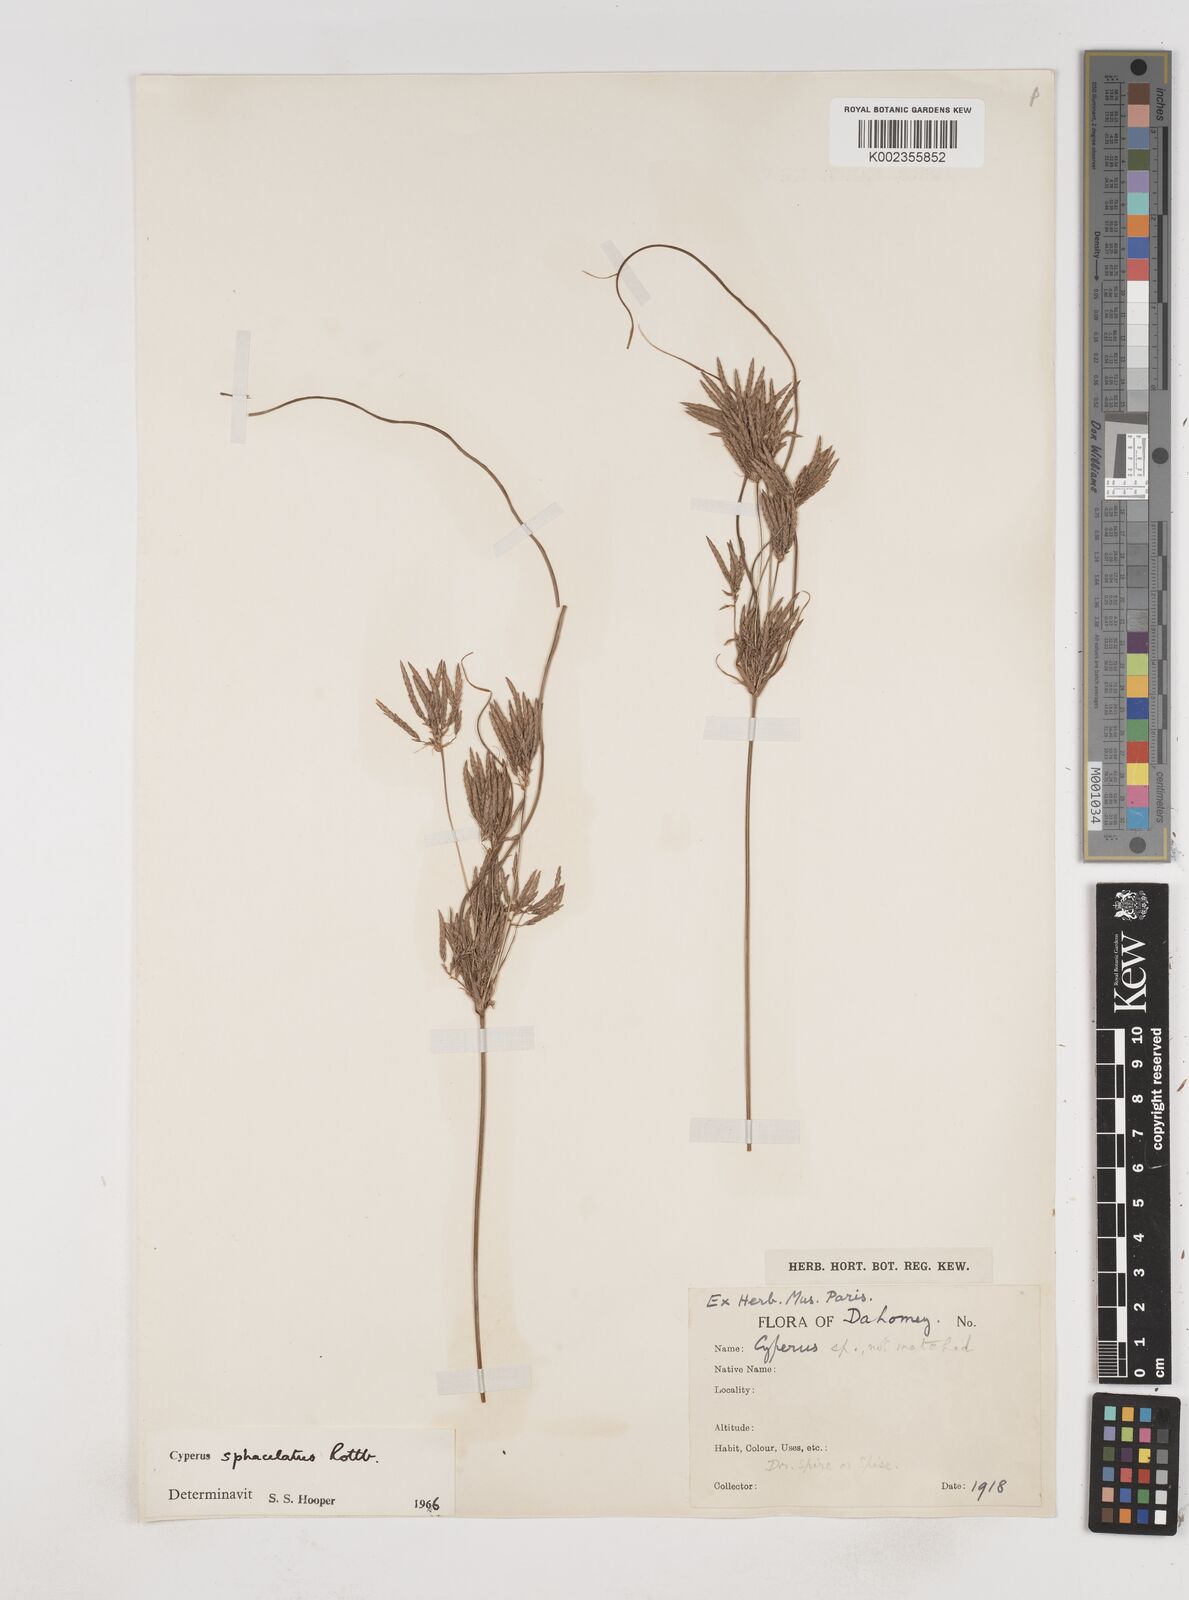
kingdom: Plantae
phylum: Tracheophyta
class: Liliopsida
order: Poales
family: Cyperaceae
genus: Cyperus
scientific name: Cyperus sphacelatus
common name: Roadside flatsedge
